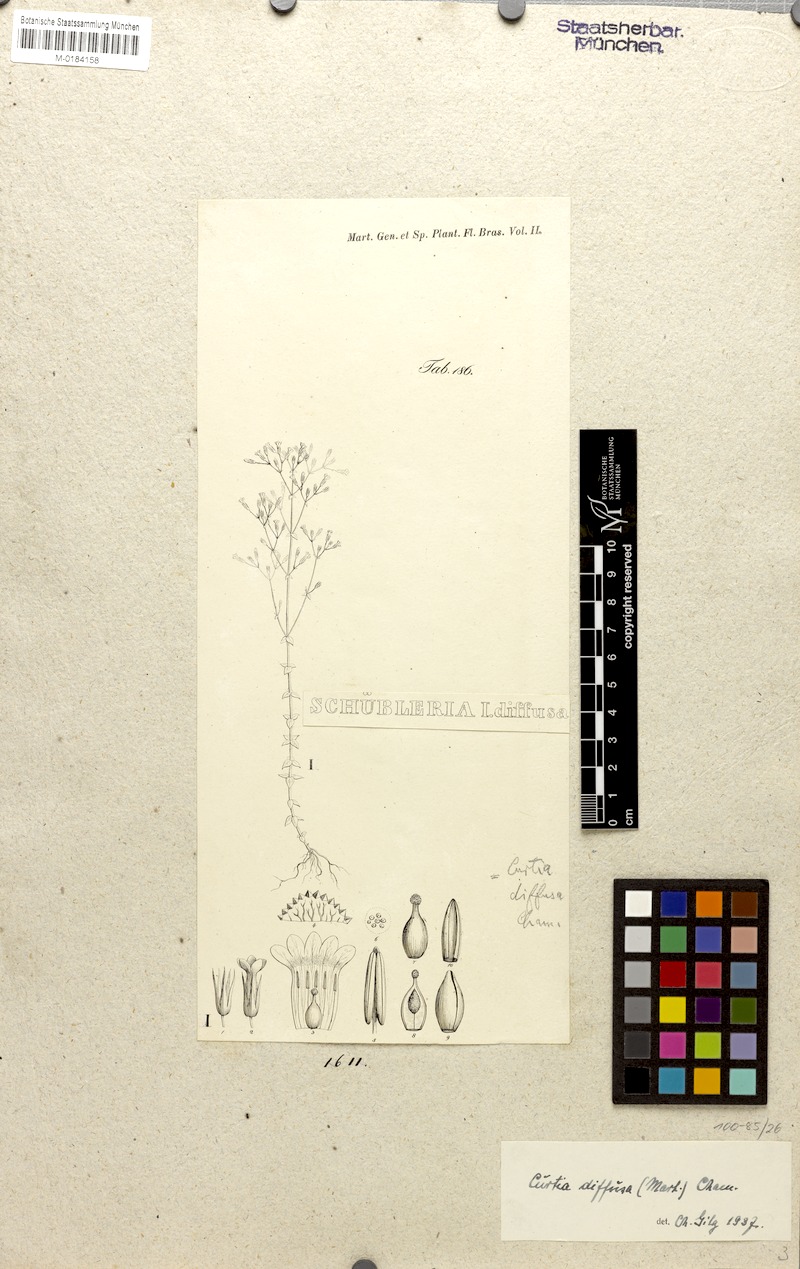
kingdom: Plantae
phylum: Tracheophyta
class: Magnoliopsida
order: Gentianales
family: Gentianaceae
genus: Curtia
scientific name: Curtia diffusa
